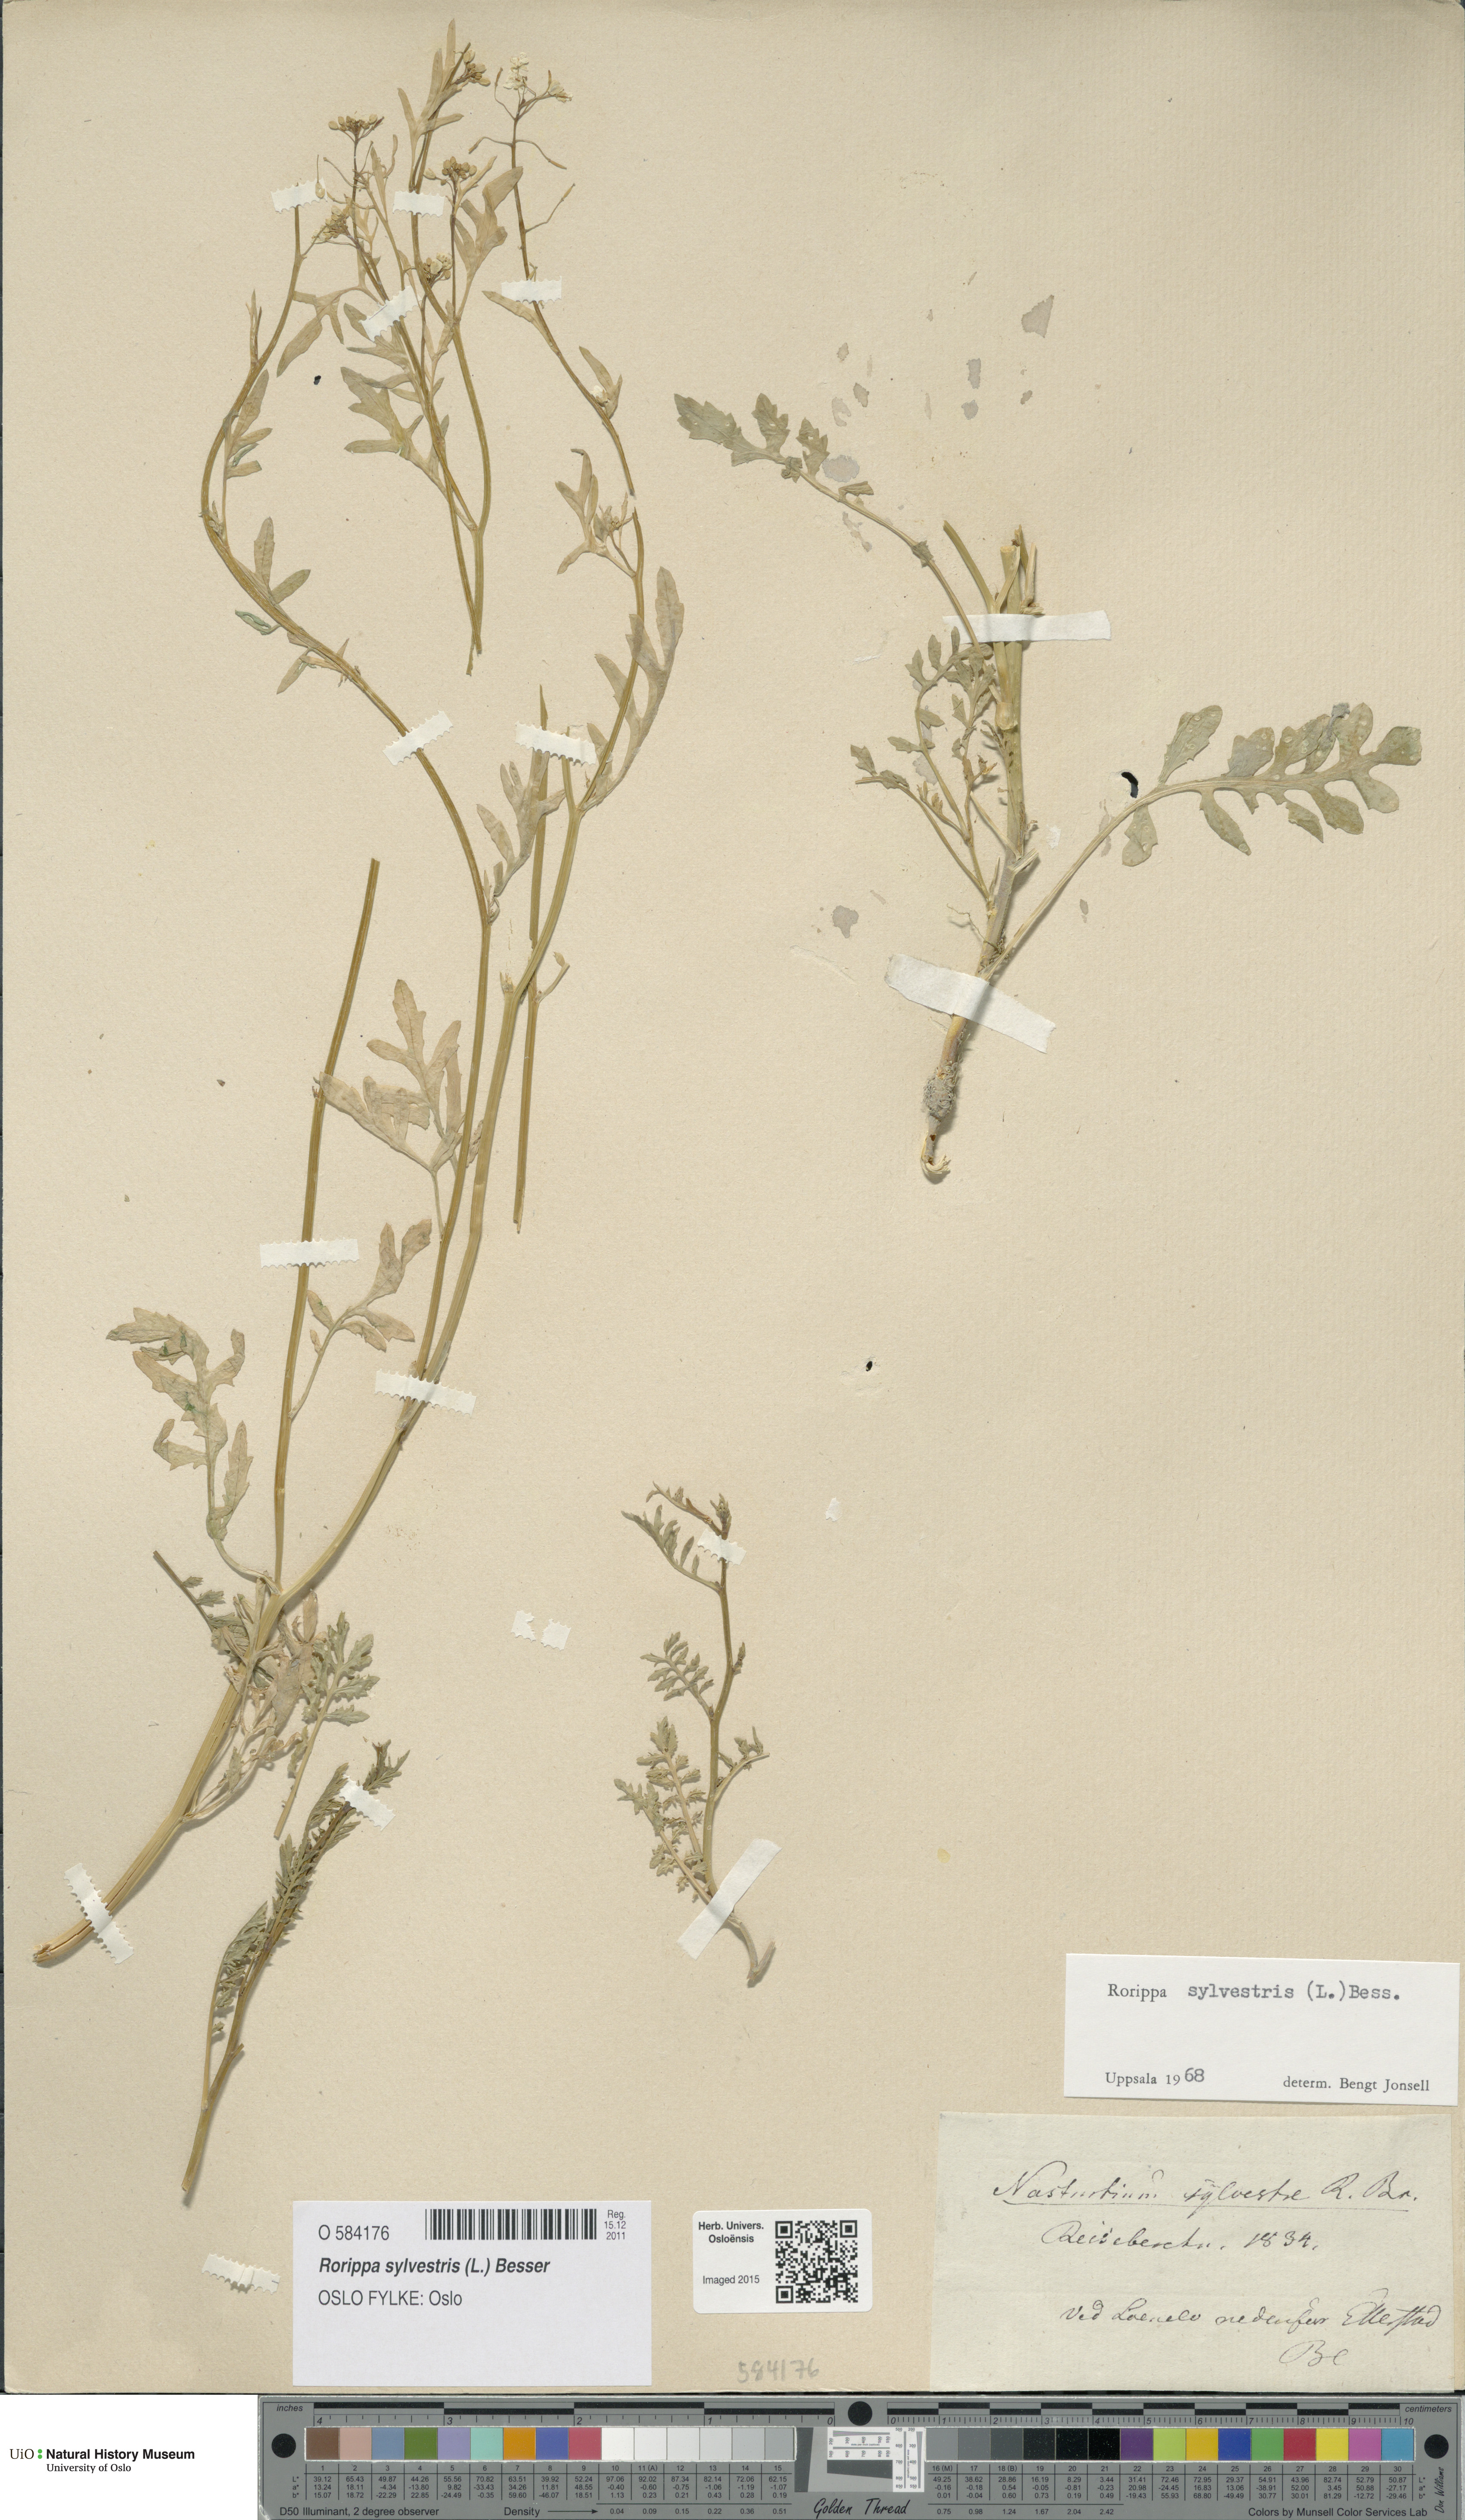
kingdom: Plantae
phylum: Tracheophyta
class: Magnoliopsida
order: Brassicales
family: Brassicaceae
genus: Rorippa
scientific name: Rorippa sylvestris
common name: Creeping yellowcress
